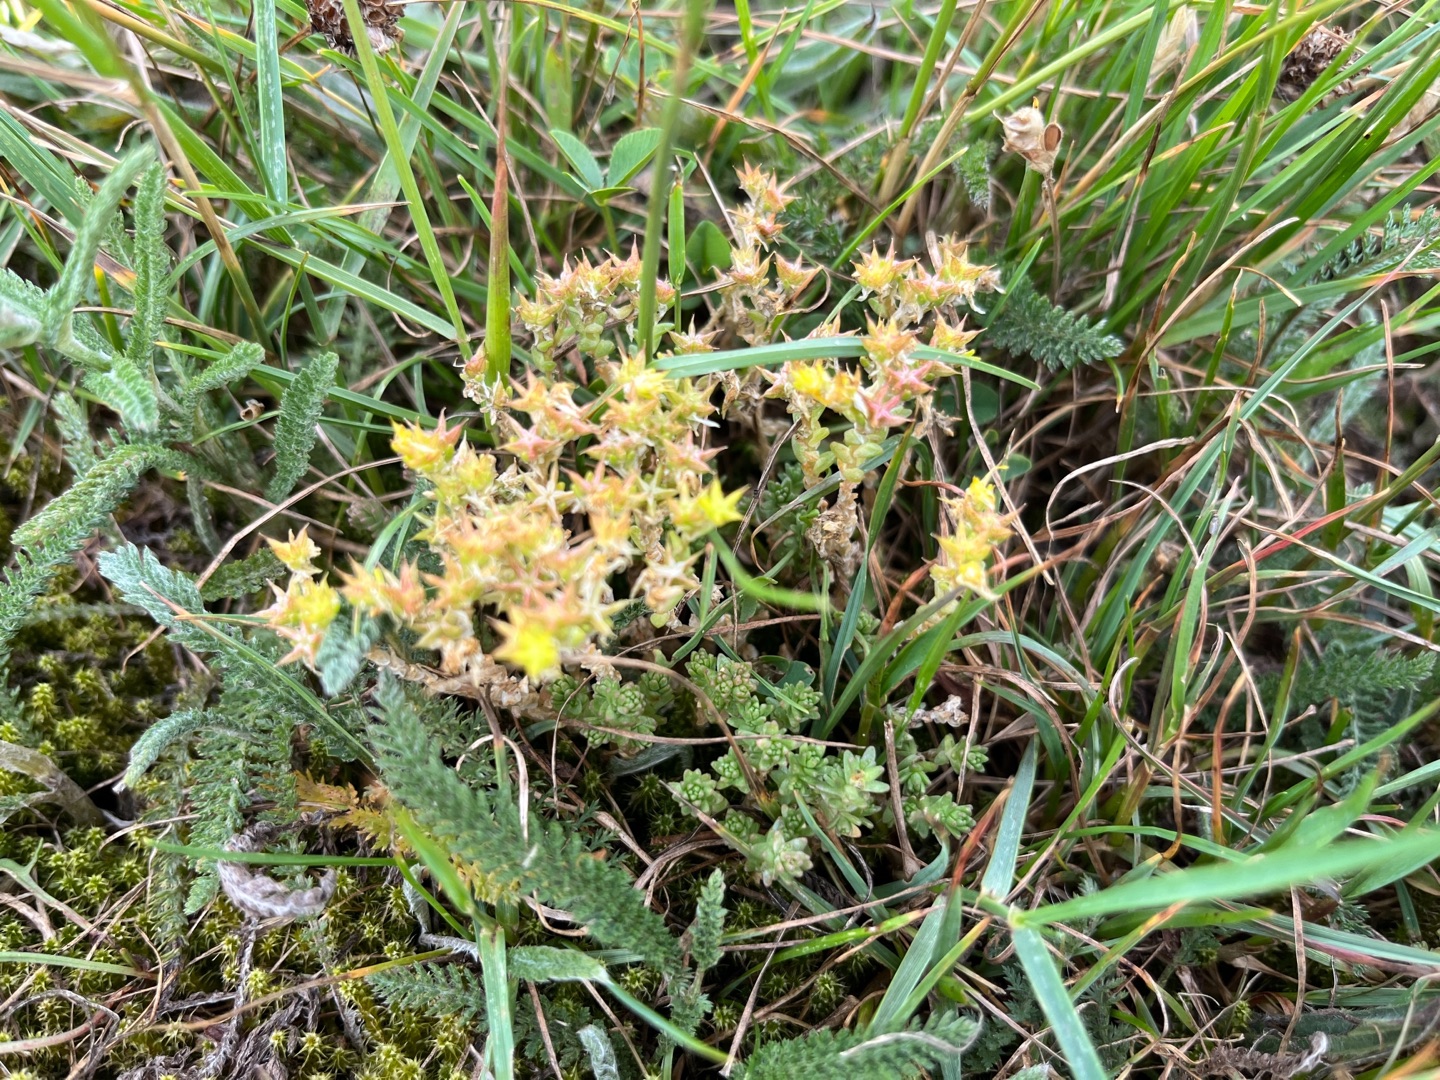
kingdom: Plantae
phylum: Tracheophyta
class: Magnoliopsida
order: Saxifragales
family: Crassulaceae
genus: Sedum
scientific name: Sedum acre
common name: Bidende stenurt
